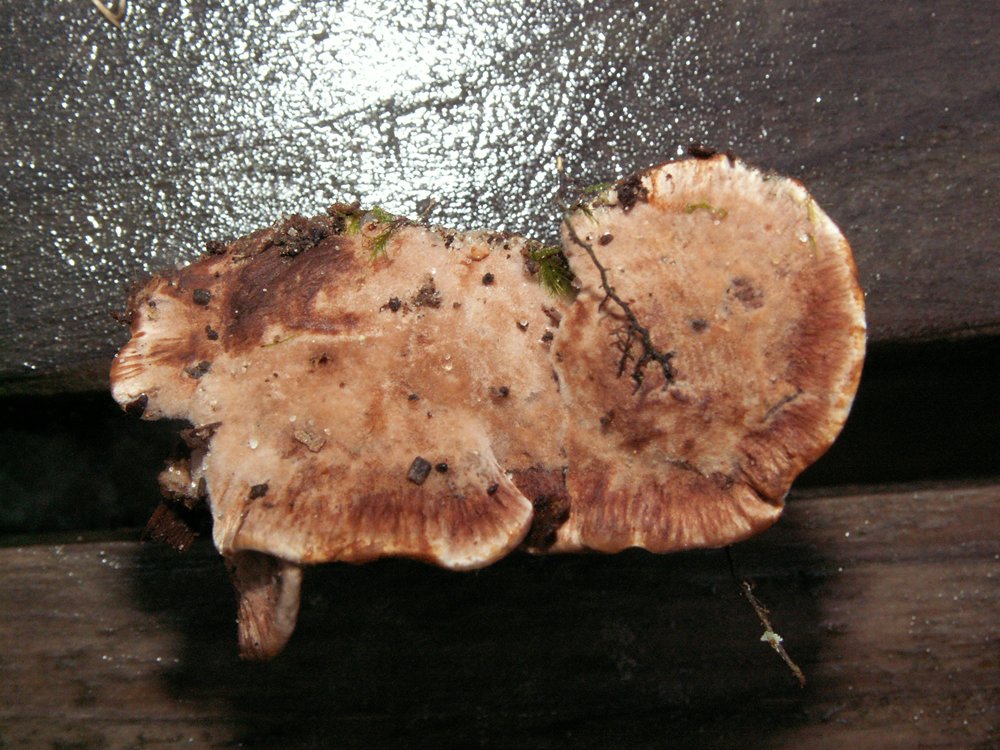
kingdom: Fungi
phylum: Basidiomycota
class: Agaricomycetes
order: Thelephorales
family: Bankeraceae
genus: Hydnellum
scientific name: Hydnellum cumulatum
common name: Rosette tooth
